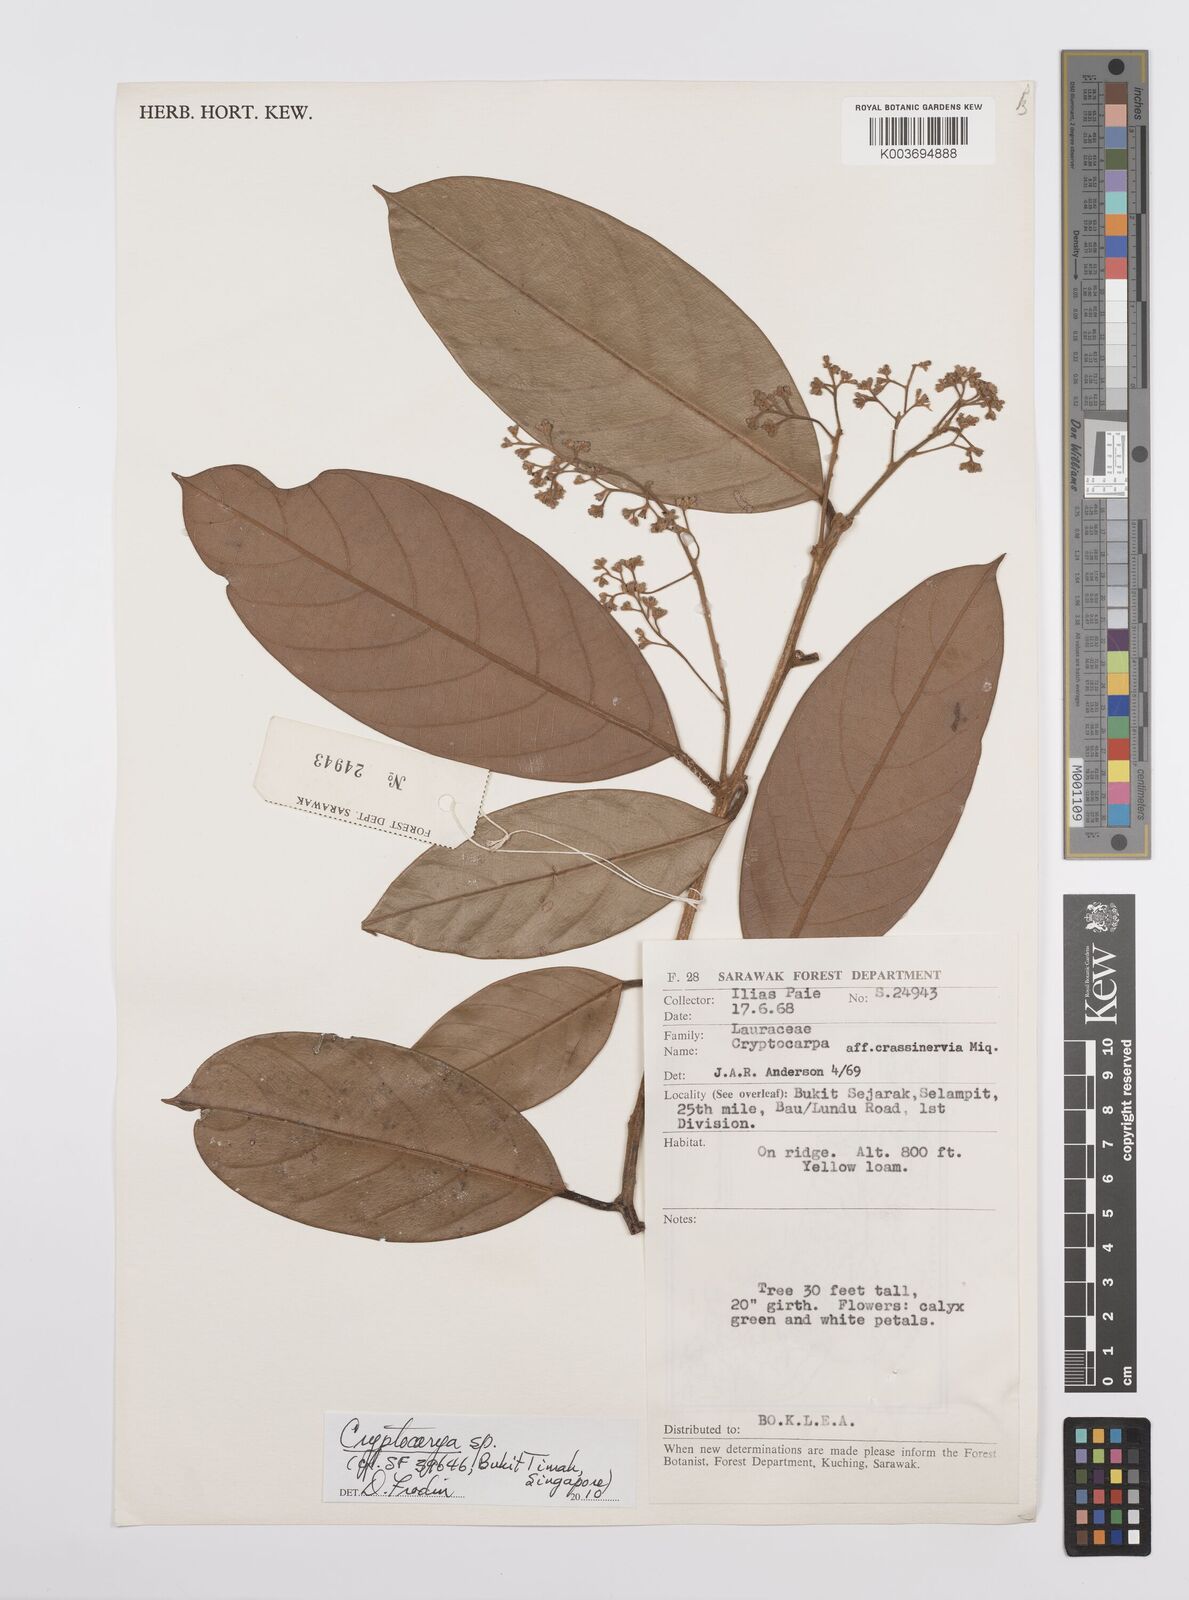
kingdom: Plantae
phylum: Tracheophyta
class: Magnoliopsida
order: Laurales
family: Lauraceae
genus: Cryptocarya
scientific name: Cryptocarya
